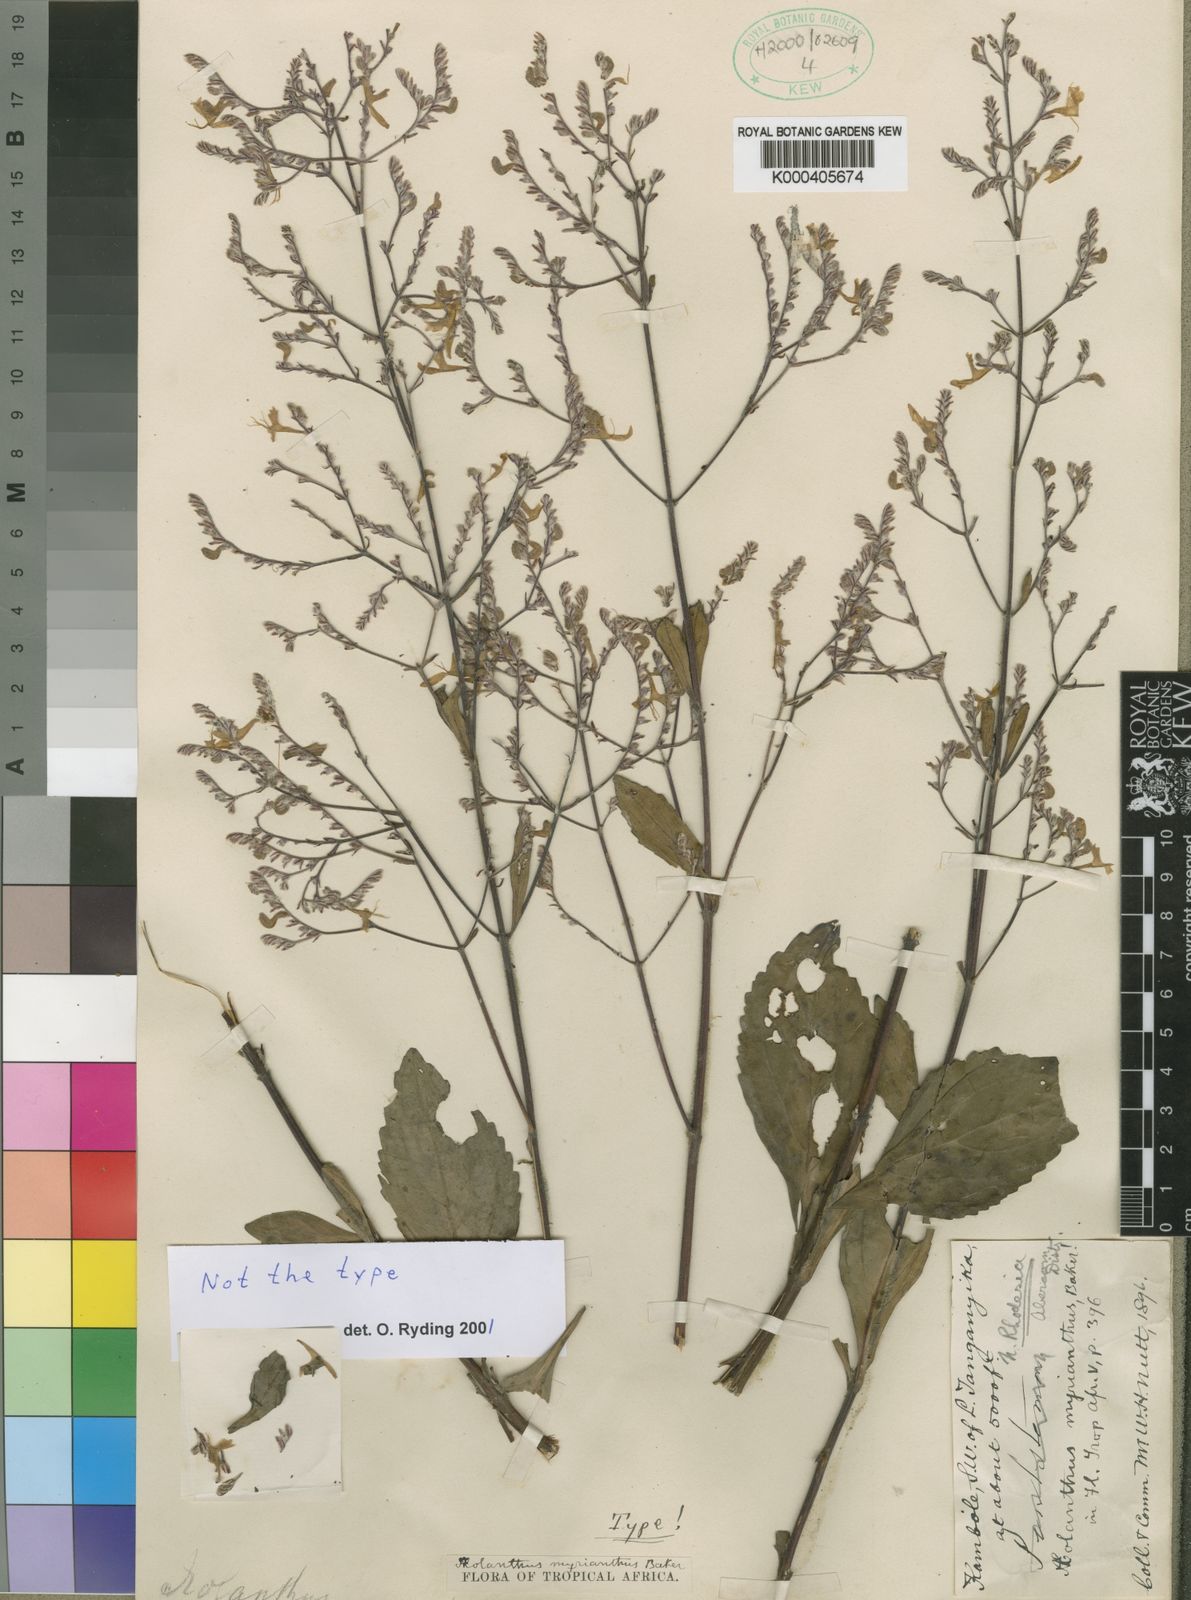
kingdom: Plantae
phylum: Tracheophyta
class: Magnoliopsida
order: Lamiales
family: Lamiaceae
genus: Aeollanthus
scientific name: Aeollanthus myrianthus
